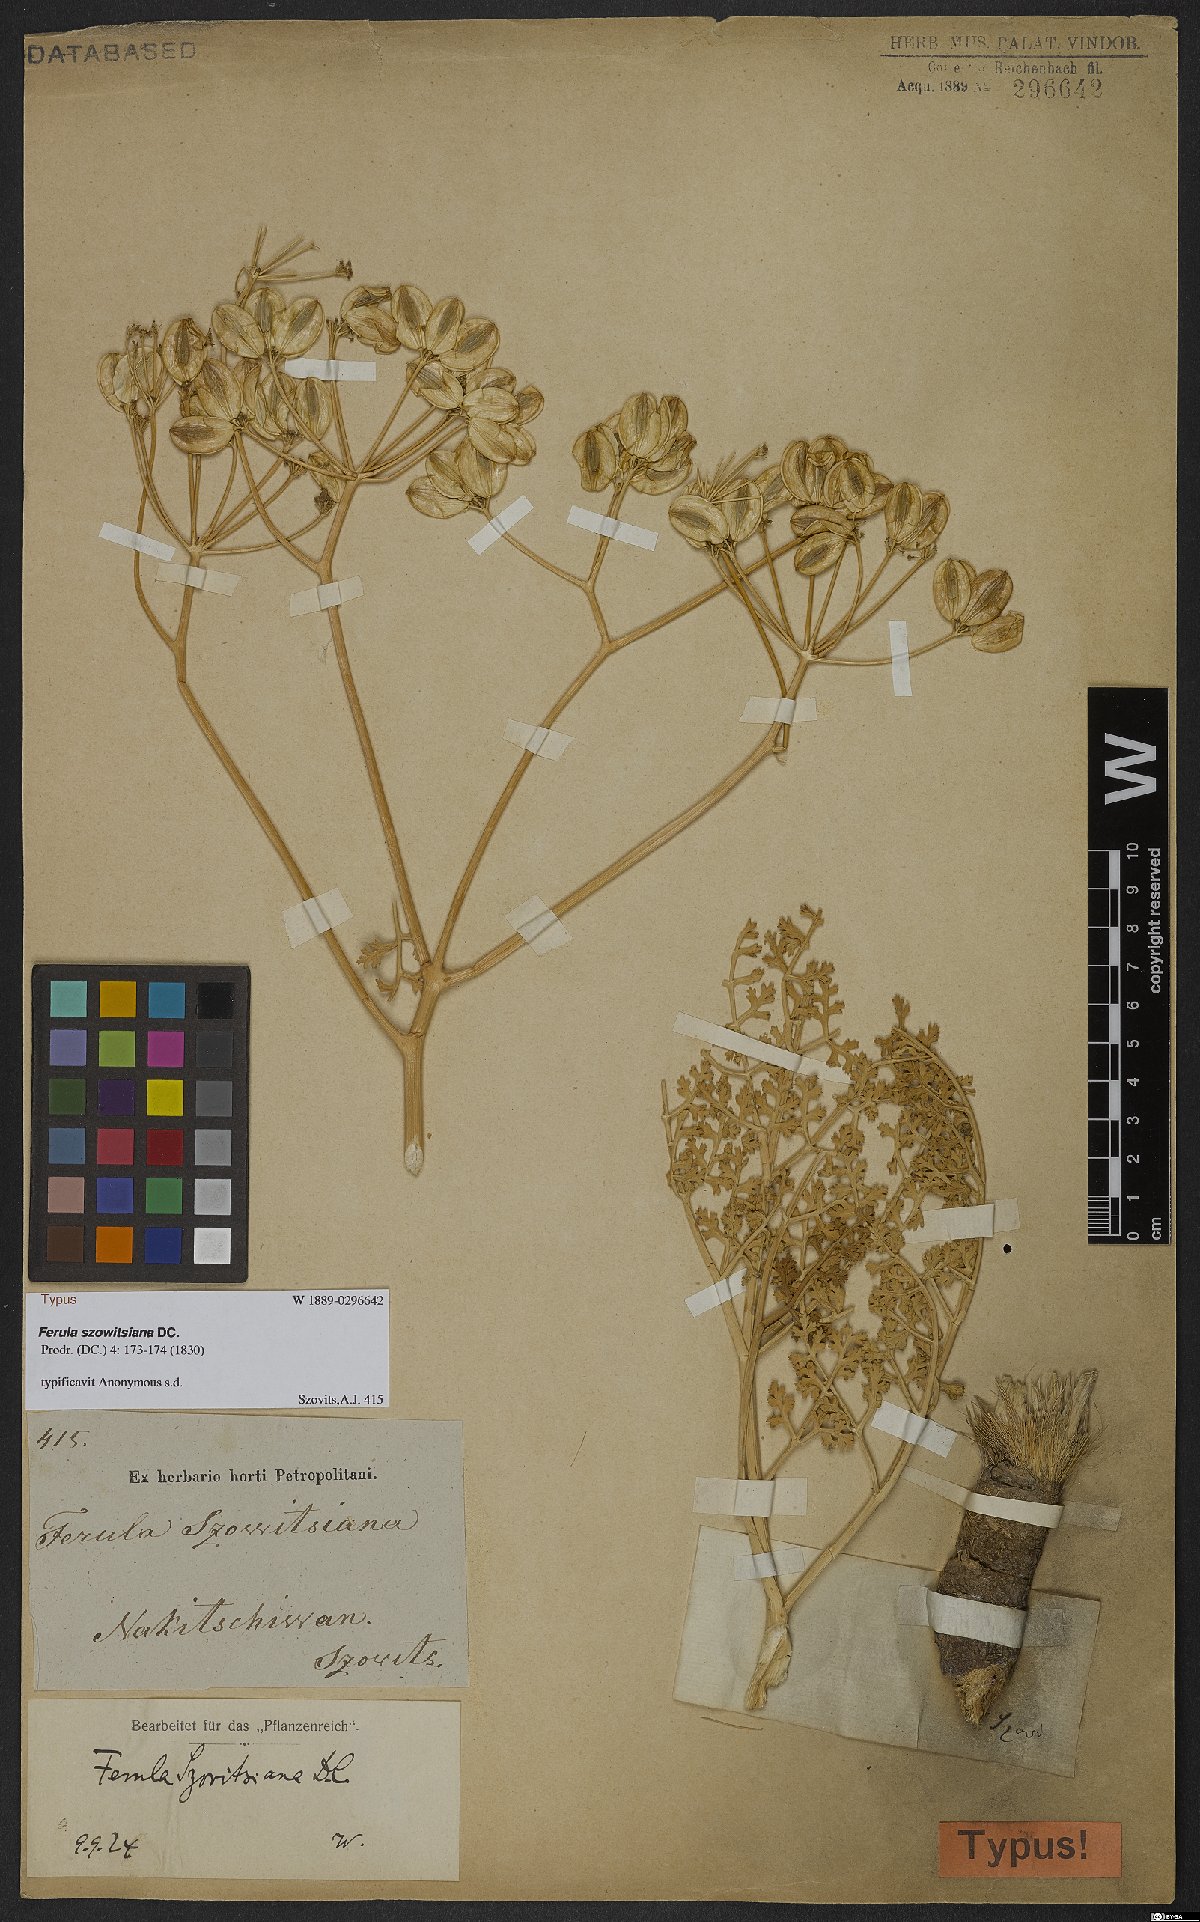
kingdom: Plantae
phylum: Tracheophyta
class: Magnoliopsida
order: Apiales
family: Apiaceae
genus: Ferula
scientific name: Ferula szowitsiana
